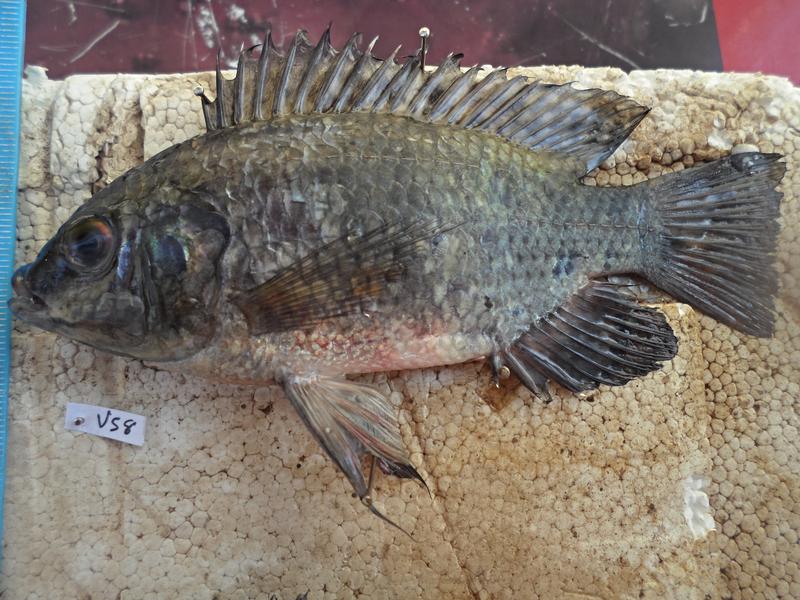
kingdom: Animalia
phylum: Chordata
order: Perciformes
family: Cichlidae
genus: Oreochromis
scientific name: Oreochromis leucostictus
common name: Blue spotted tilapia
